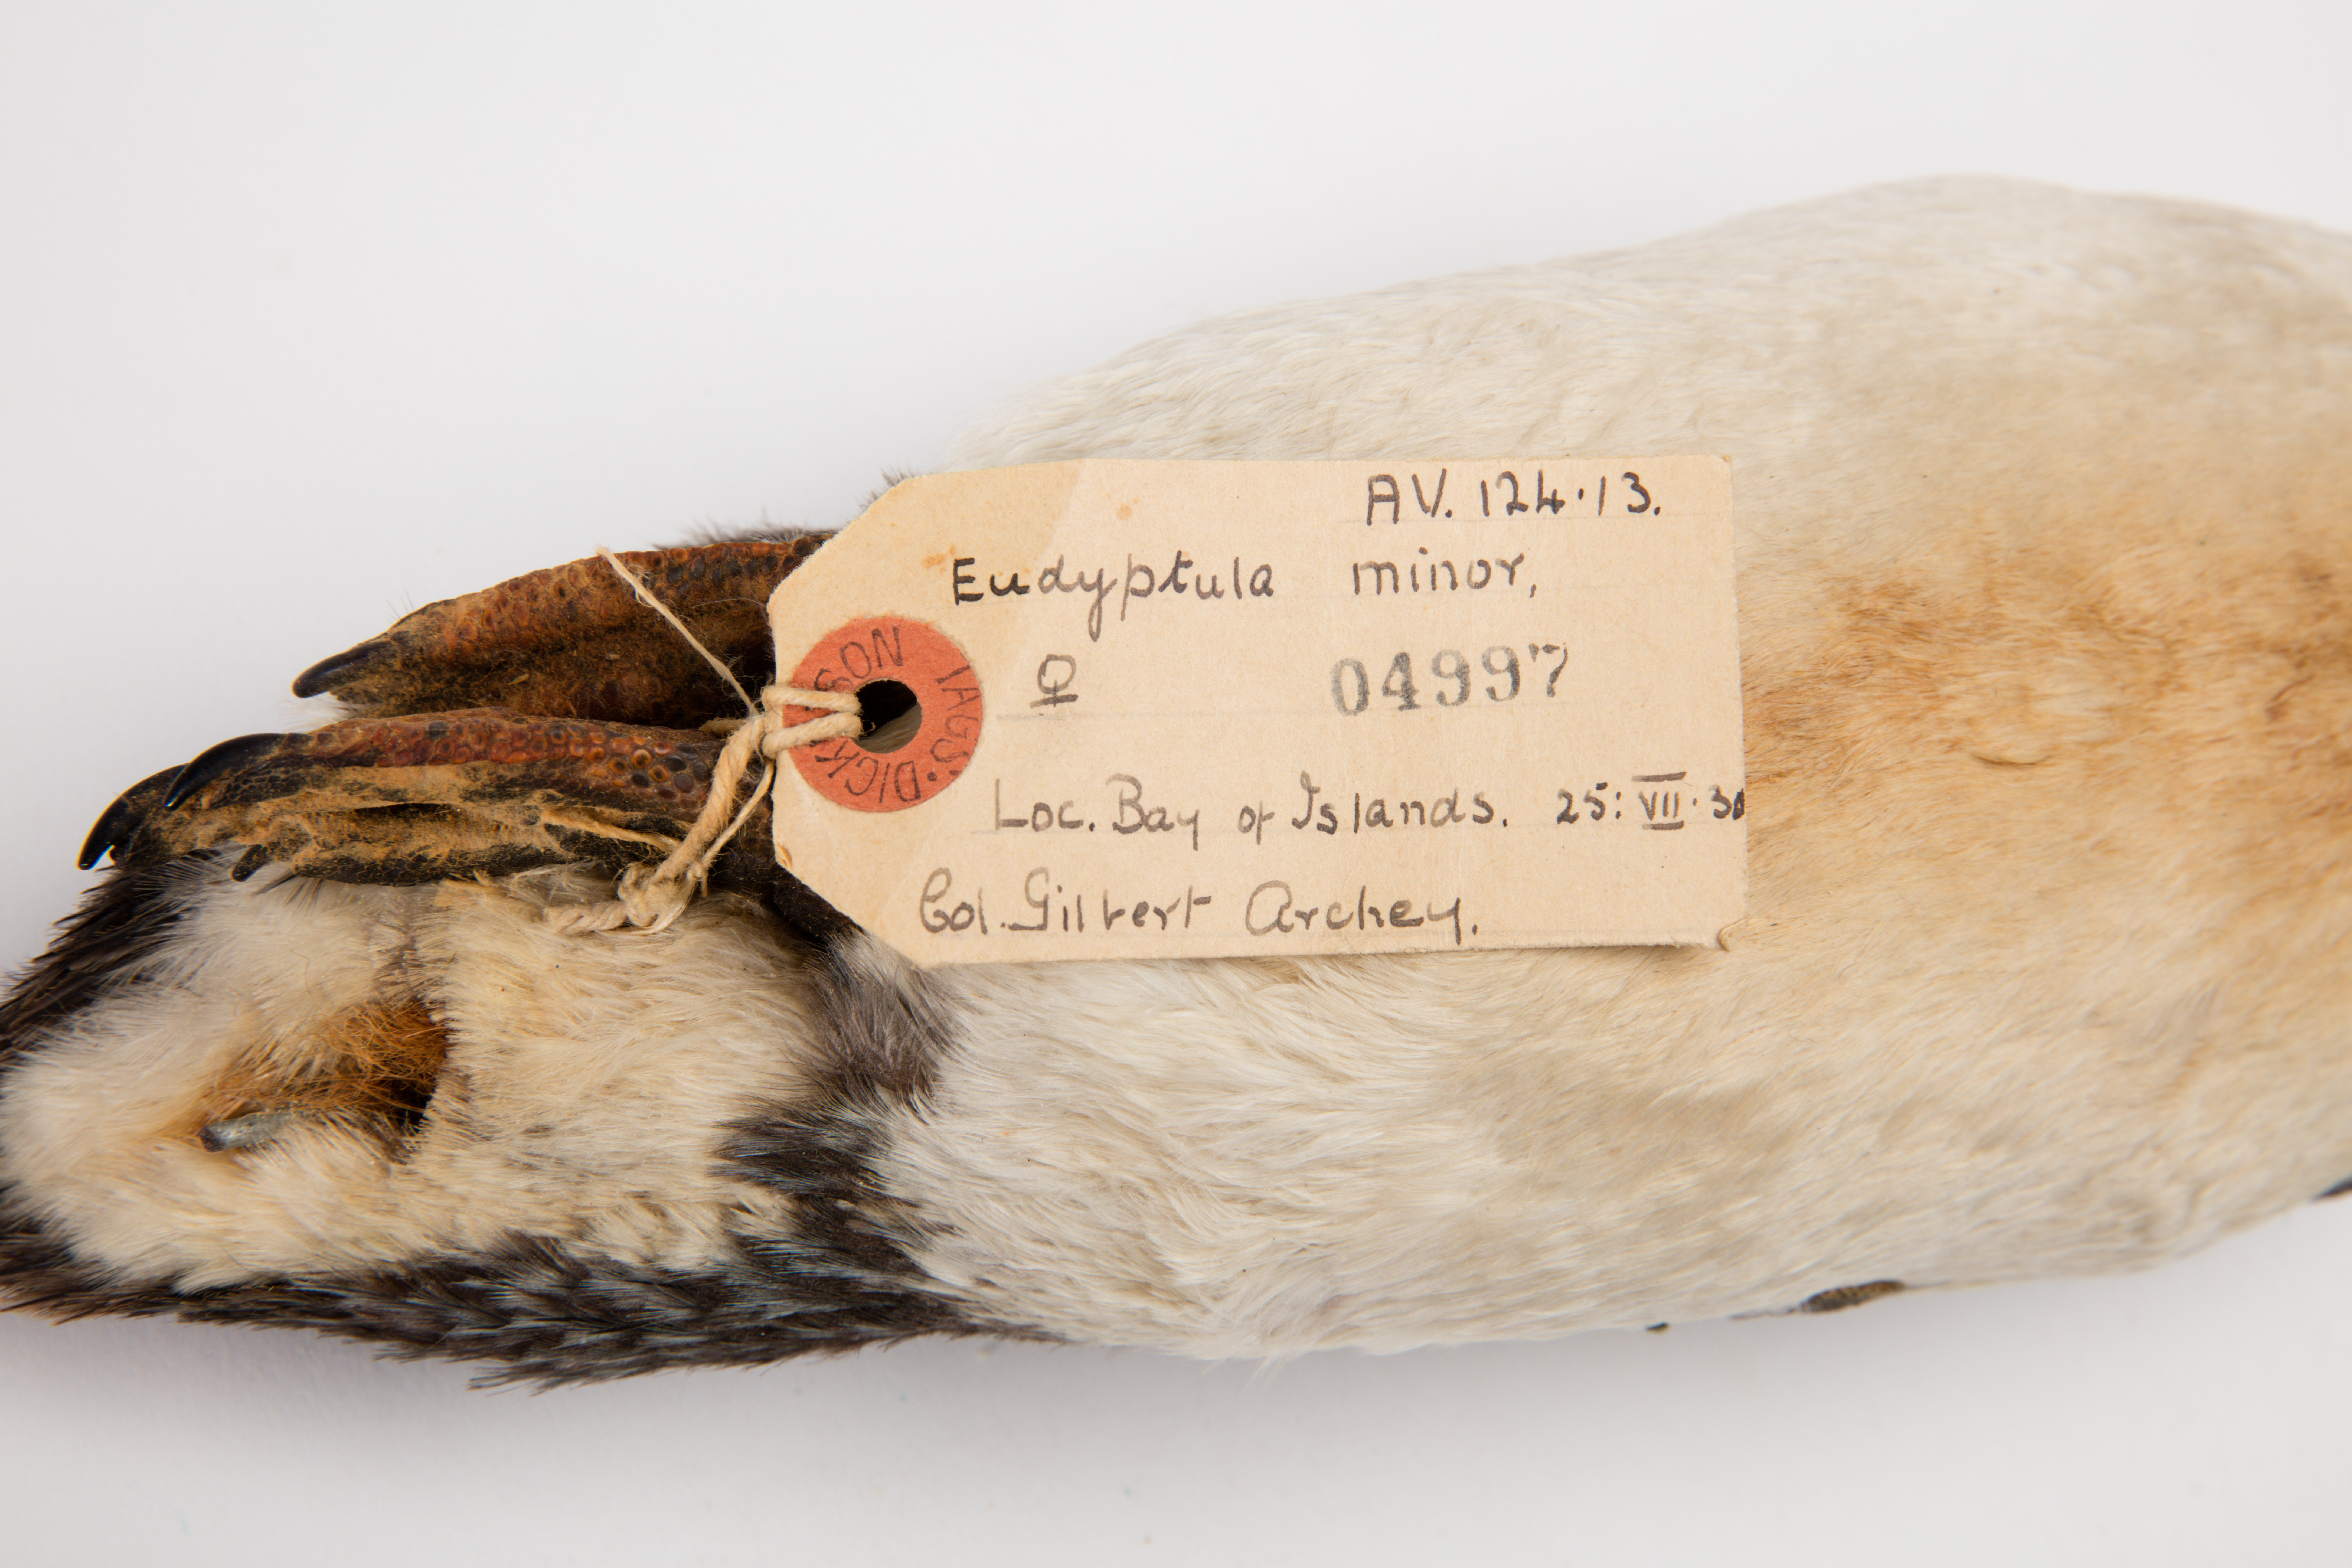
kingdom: Animalia
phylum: Chordata
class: Aves
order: Sphenisciformes
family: Spheniscidae
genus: Eudyptula
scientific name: Eudyptula minor
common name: Little penguin
